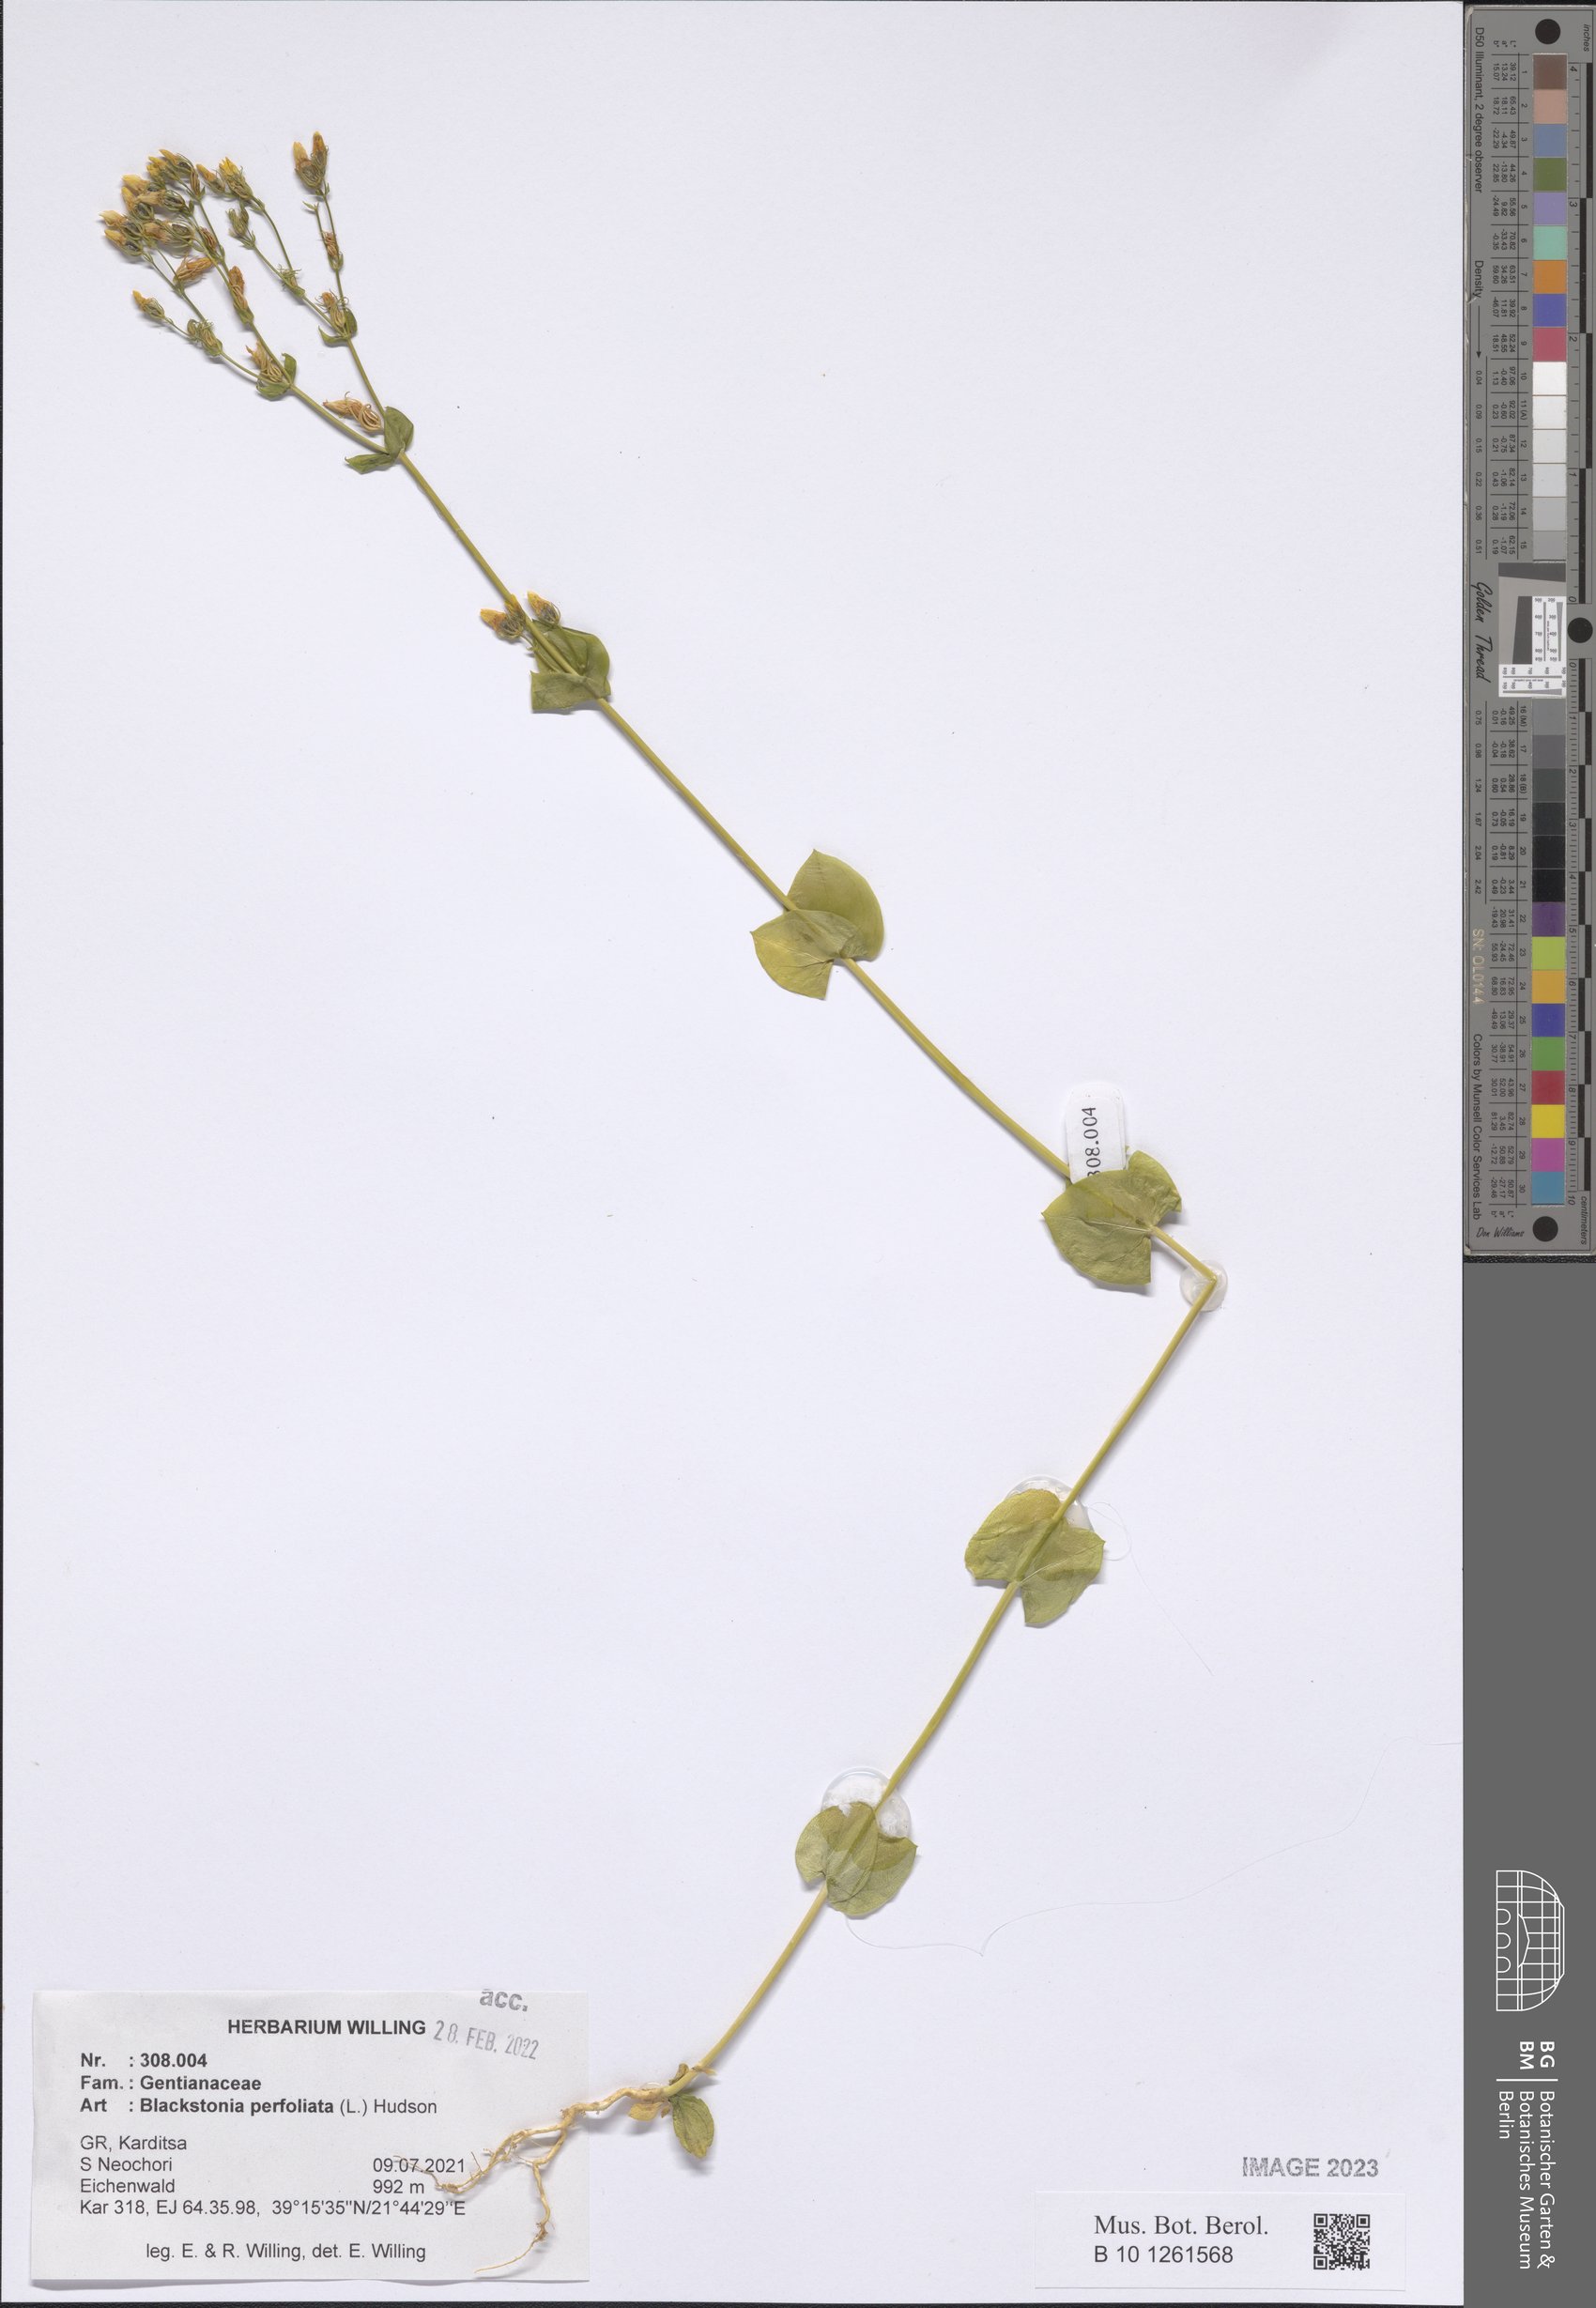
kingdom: Plantae
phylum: Tracheophyta
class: Magnoliopsida
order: Gentianales
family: Gentianaceae
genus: Blackstonia
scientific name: Blackstonia perfoliata
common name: Yellow-wort
